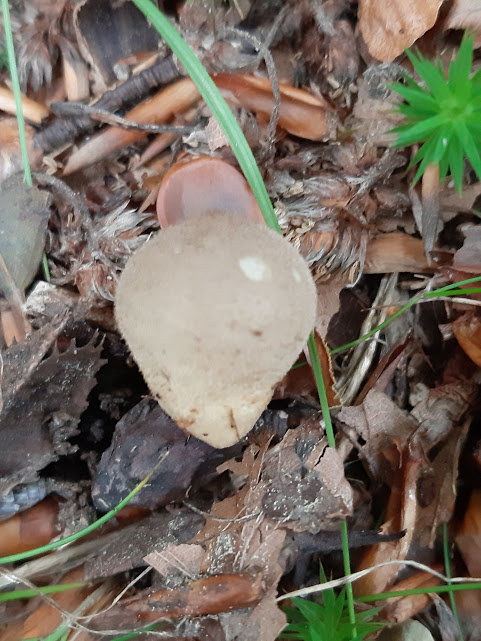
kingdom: Fungi
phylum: Basidiomycota
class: Agaricomycetes
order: Agaricales
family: Agaricaceae
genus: Lycoperdon
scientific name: Lycoperdon
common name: støvbold
